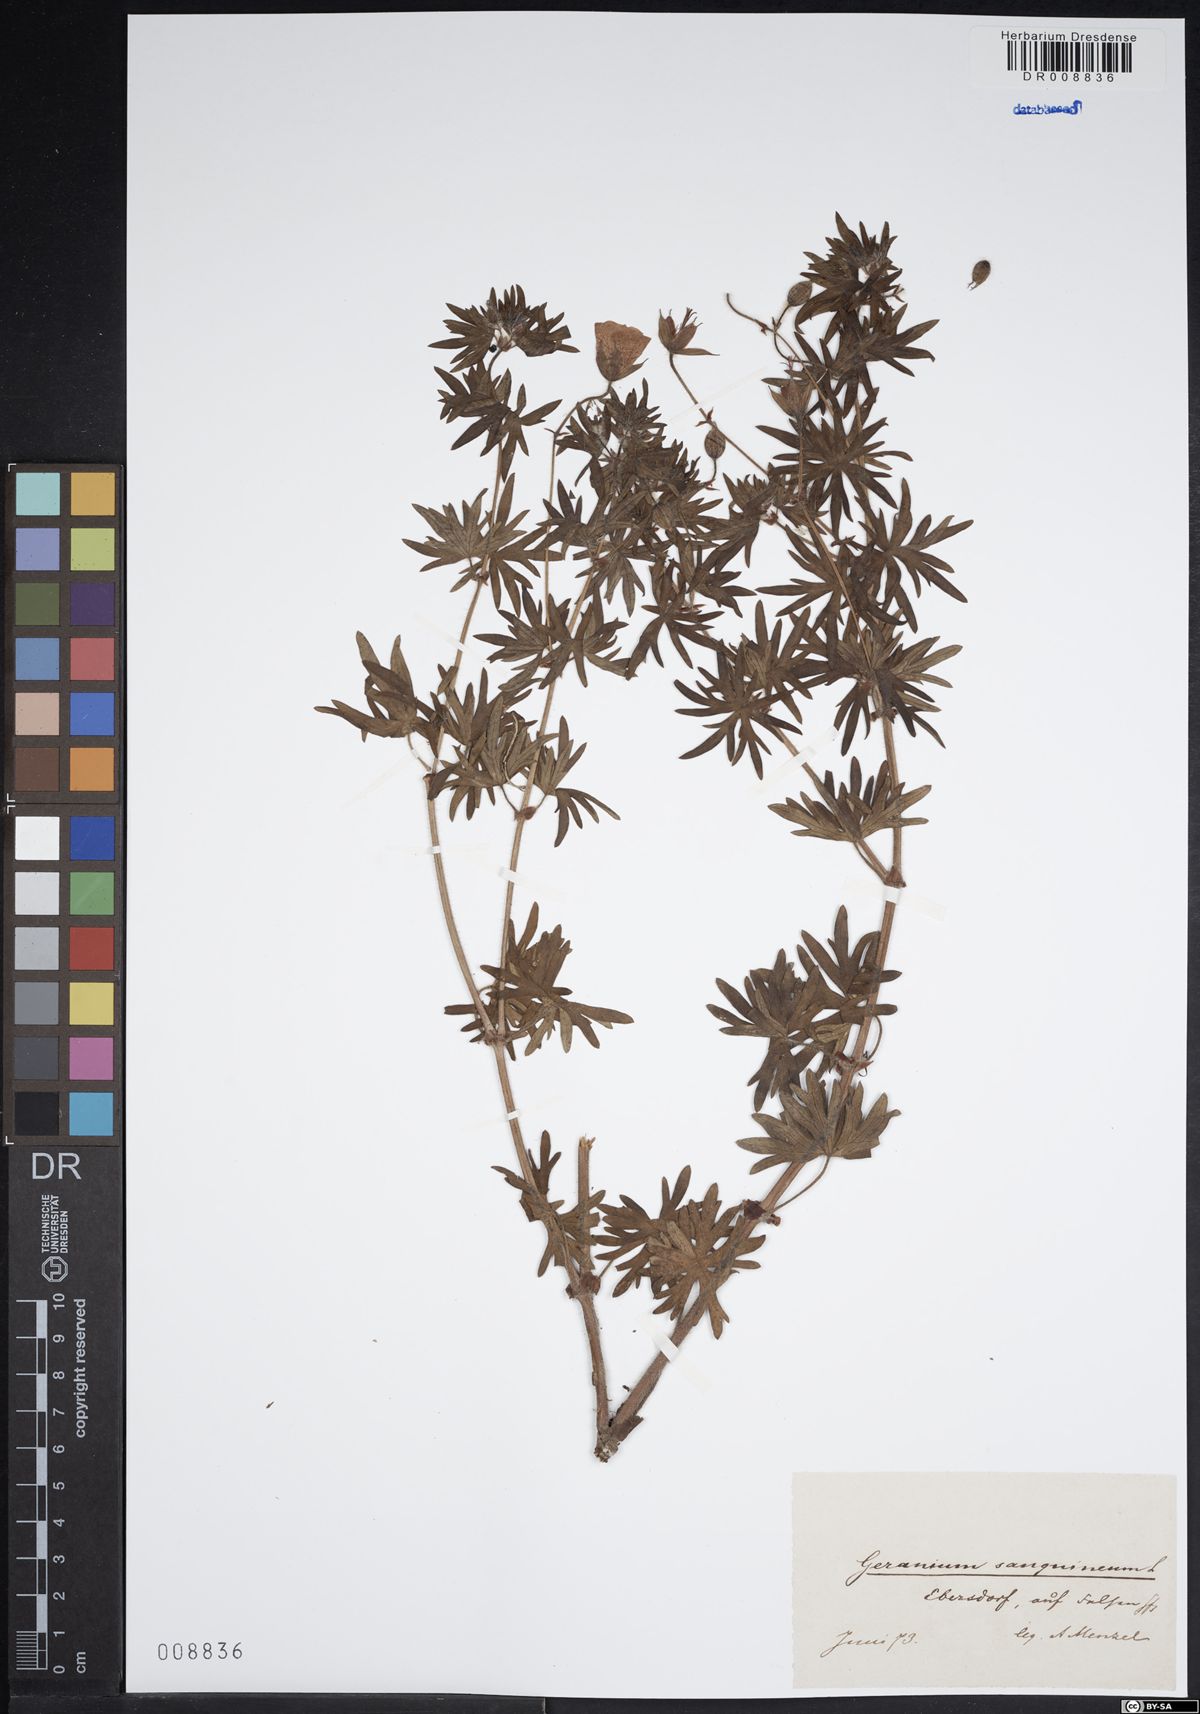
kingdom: Plantae
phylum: Tracheophyta
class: Magnoliopsida
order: Geraniales
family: Geraniaceae
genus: Geranium
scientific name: Geranium sanguineum
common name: Bloody crane's-bill
